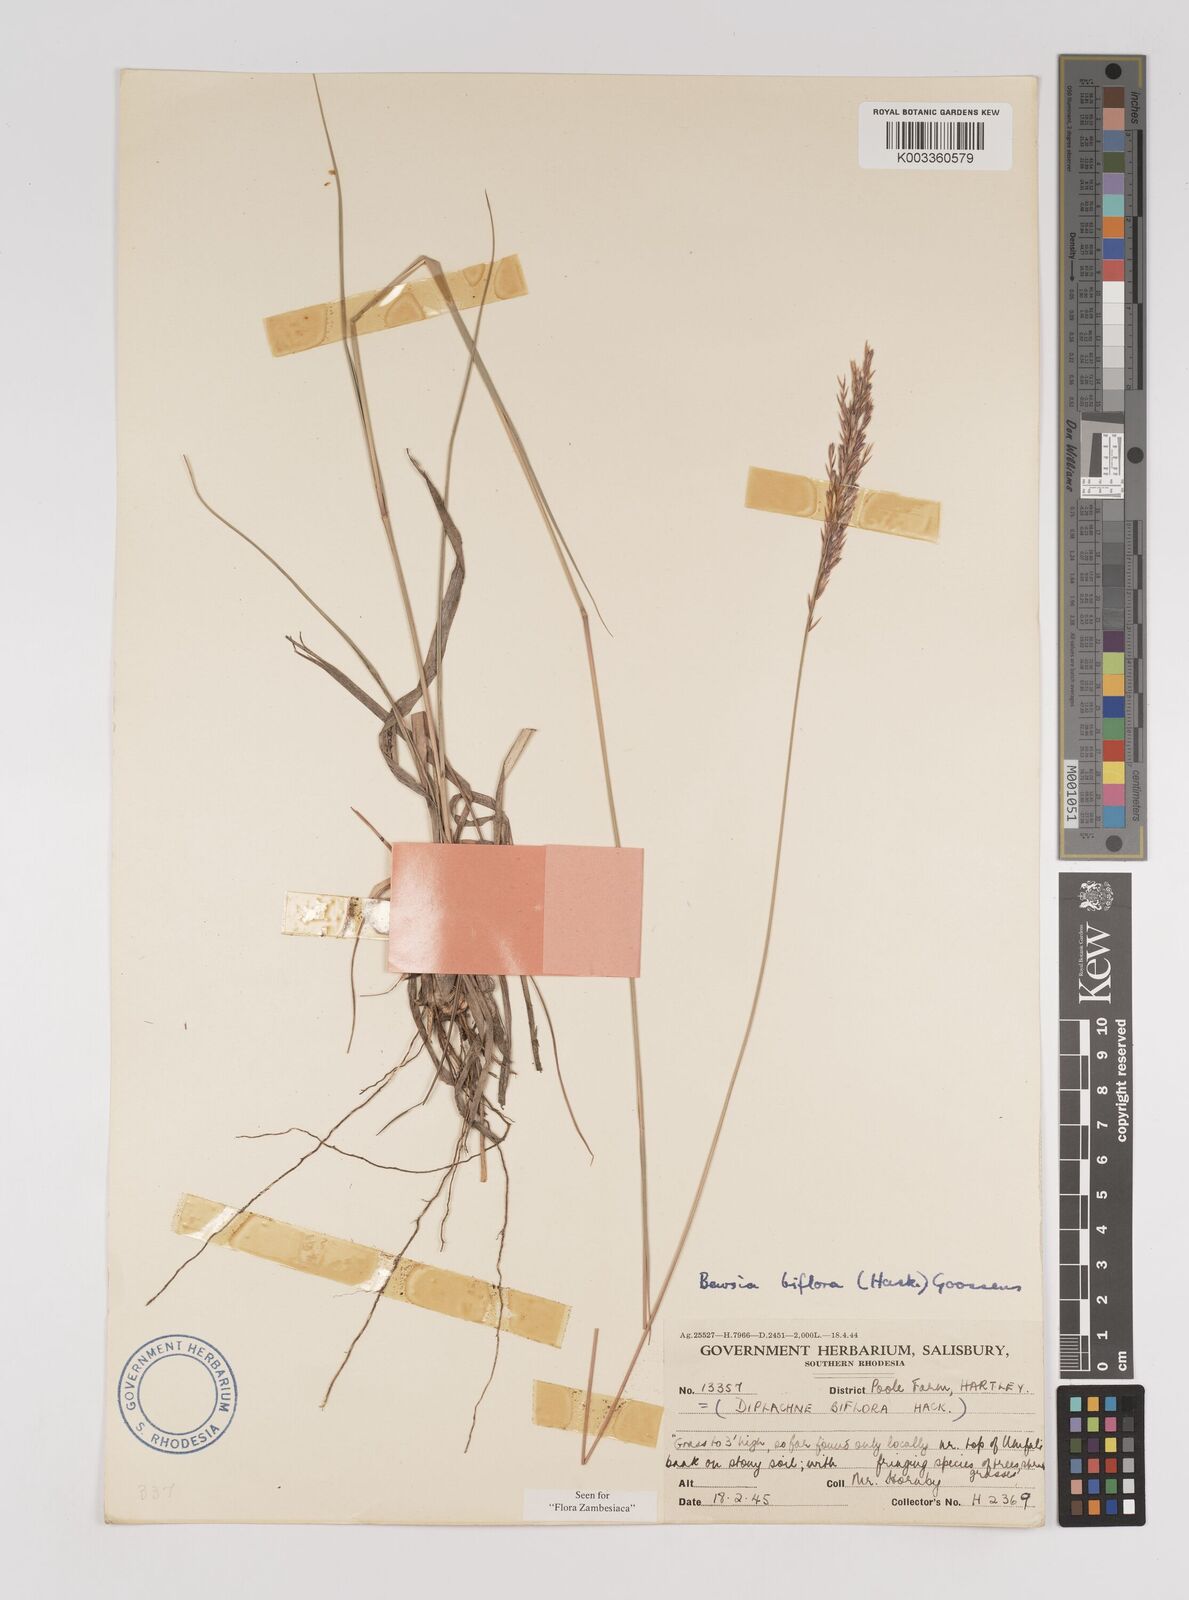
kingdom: Plantae
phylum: Tracheophyta
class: Liliopsida
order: Poales
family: Poaceae
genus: Bewsia
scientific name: Bewsia biflora
